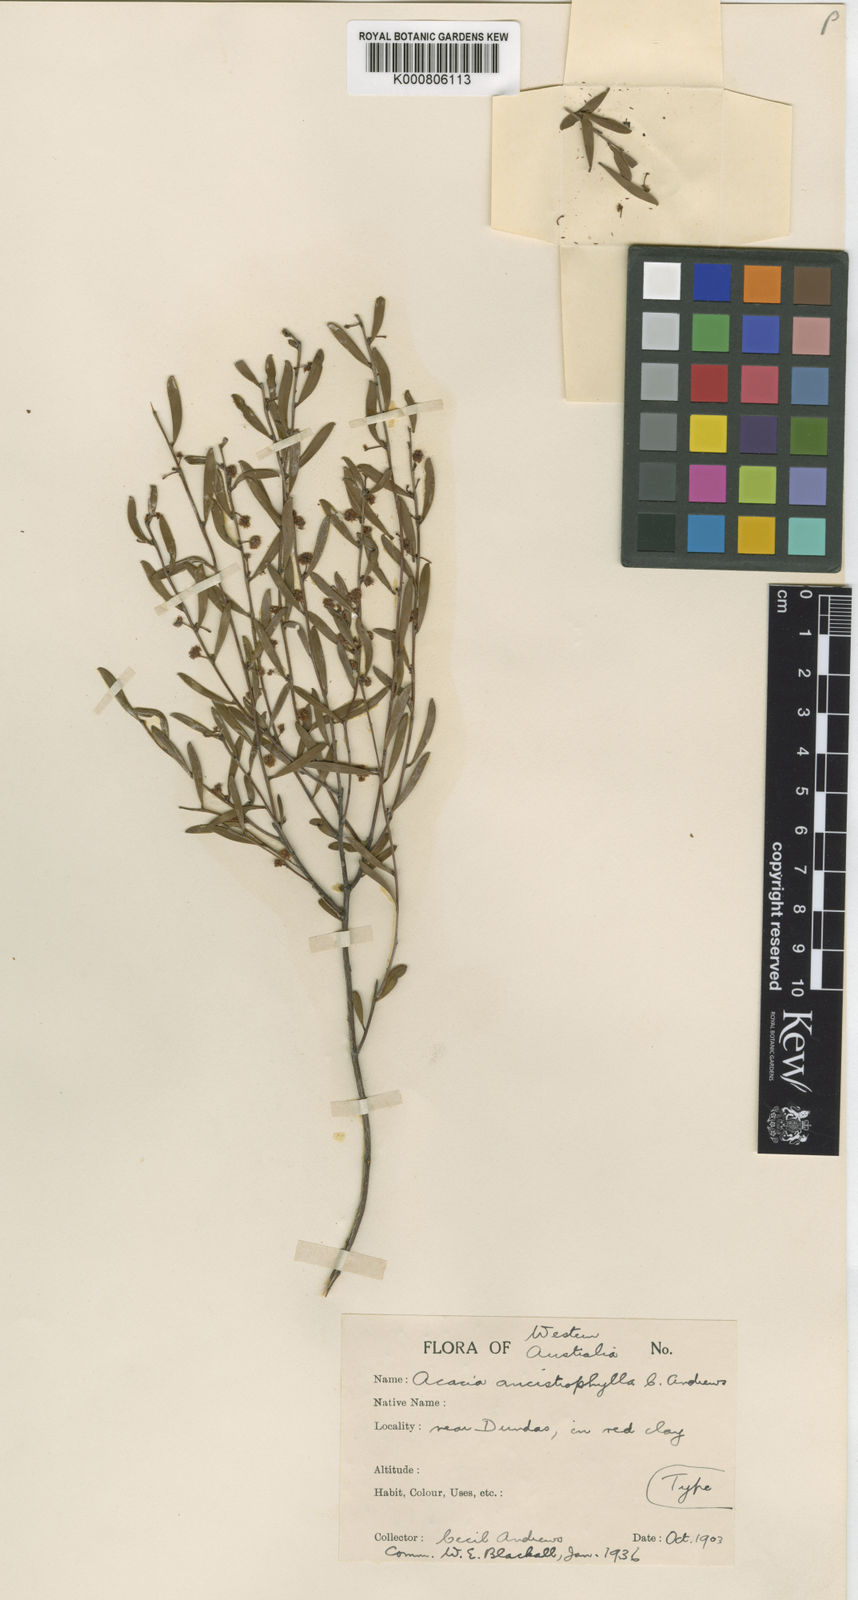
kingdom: Plantae
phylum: Tracheophyta
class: Magnoliopsida
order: Fabales
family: Fabaceae
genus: Acacia
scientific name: Acacia ancistrophylla
